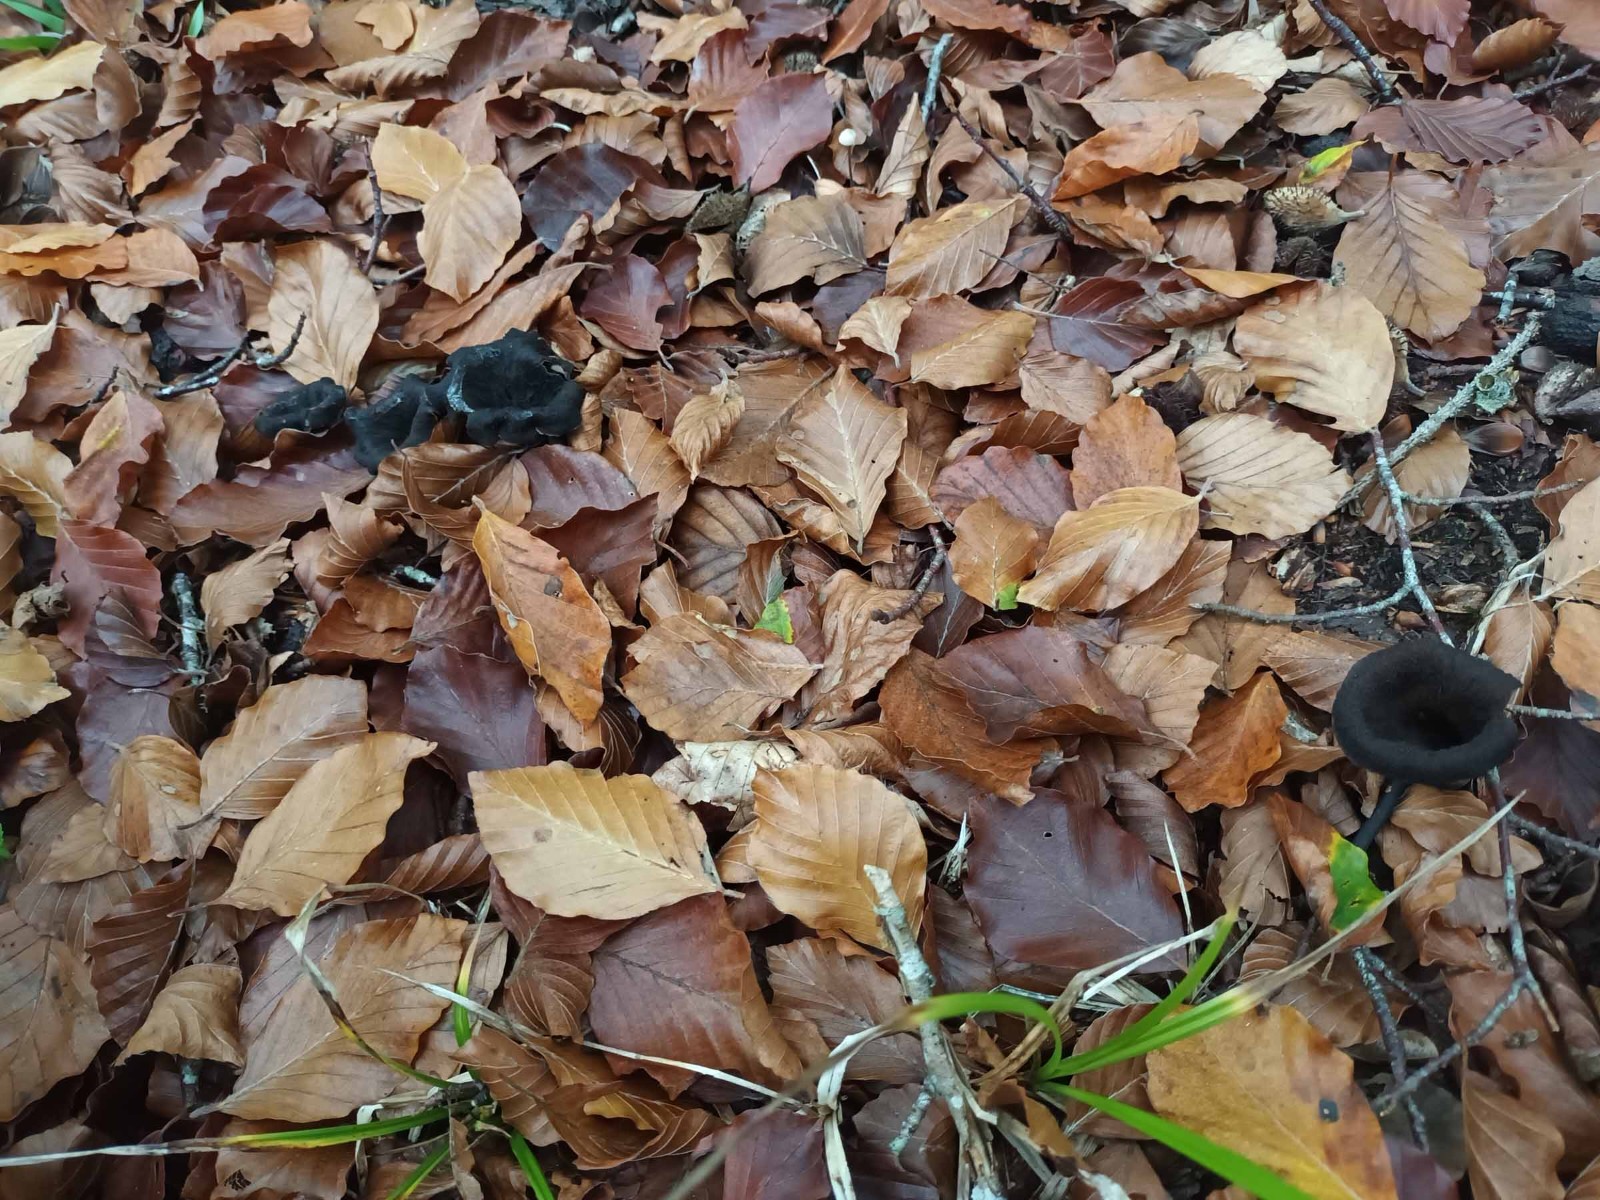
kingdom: Fungi
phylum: Basidiomycota
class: Agaricomycetes
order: Cantharellales
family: Hydnaceae
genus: Craterellus
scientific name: Craterellus cornucopioides
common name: trompetsvamp
